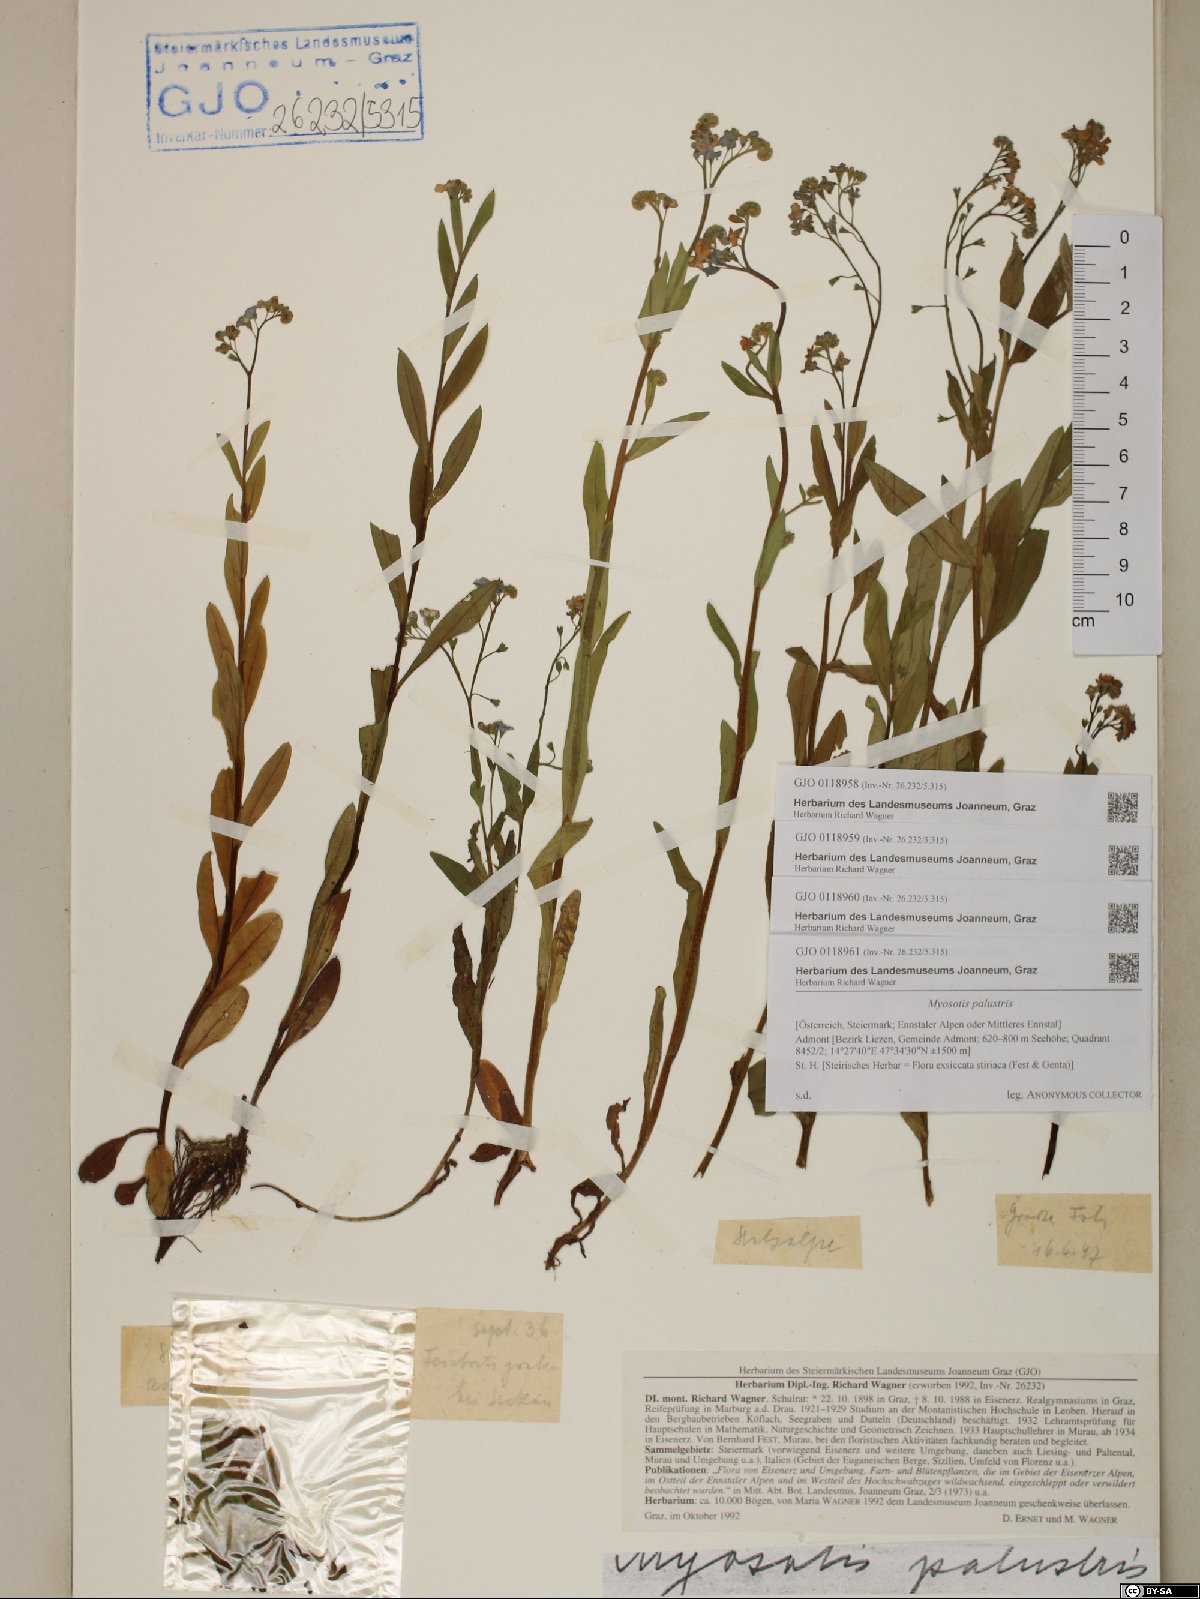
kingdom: Plantae
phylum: Tracheophyta
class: Magnoliopsida
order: Boraginales
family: Boraginaceae
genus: Myosotis
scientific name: Myosotis scorpioides
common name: Water forget-me-not
